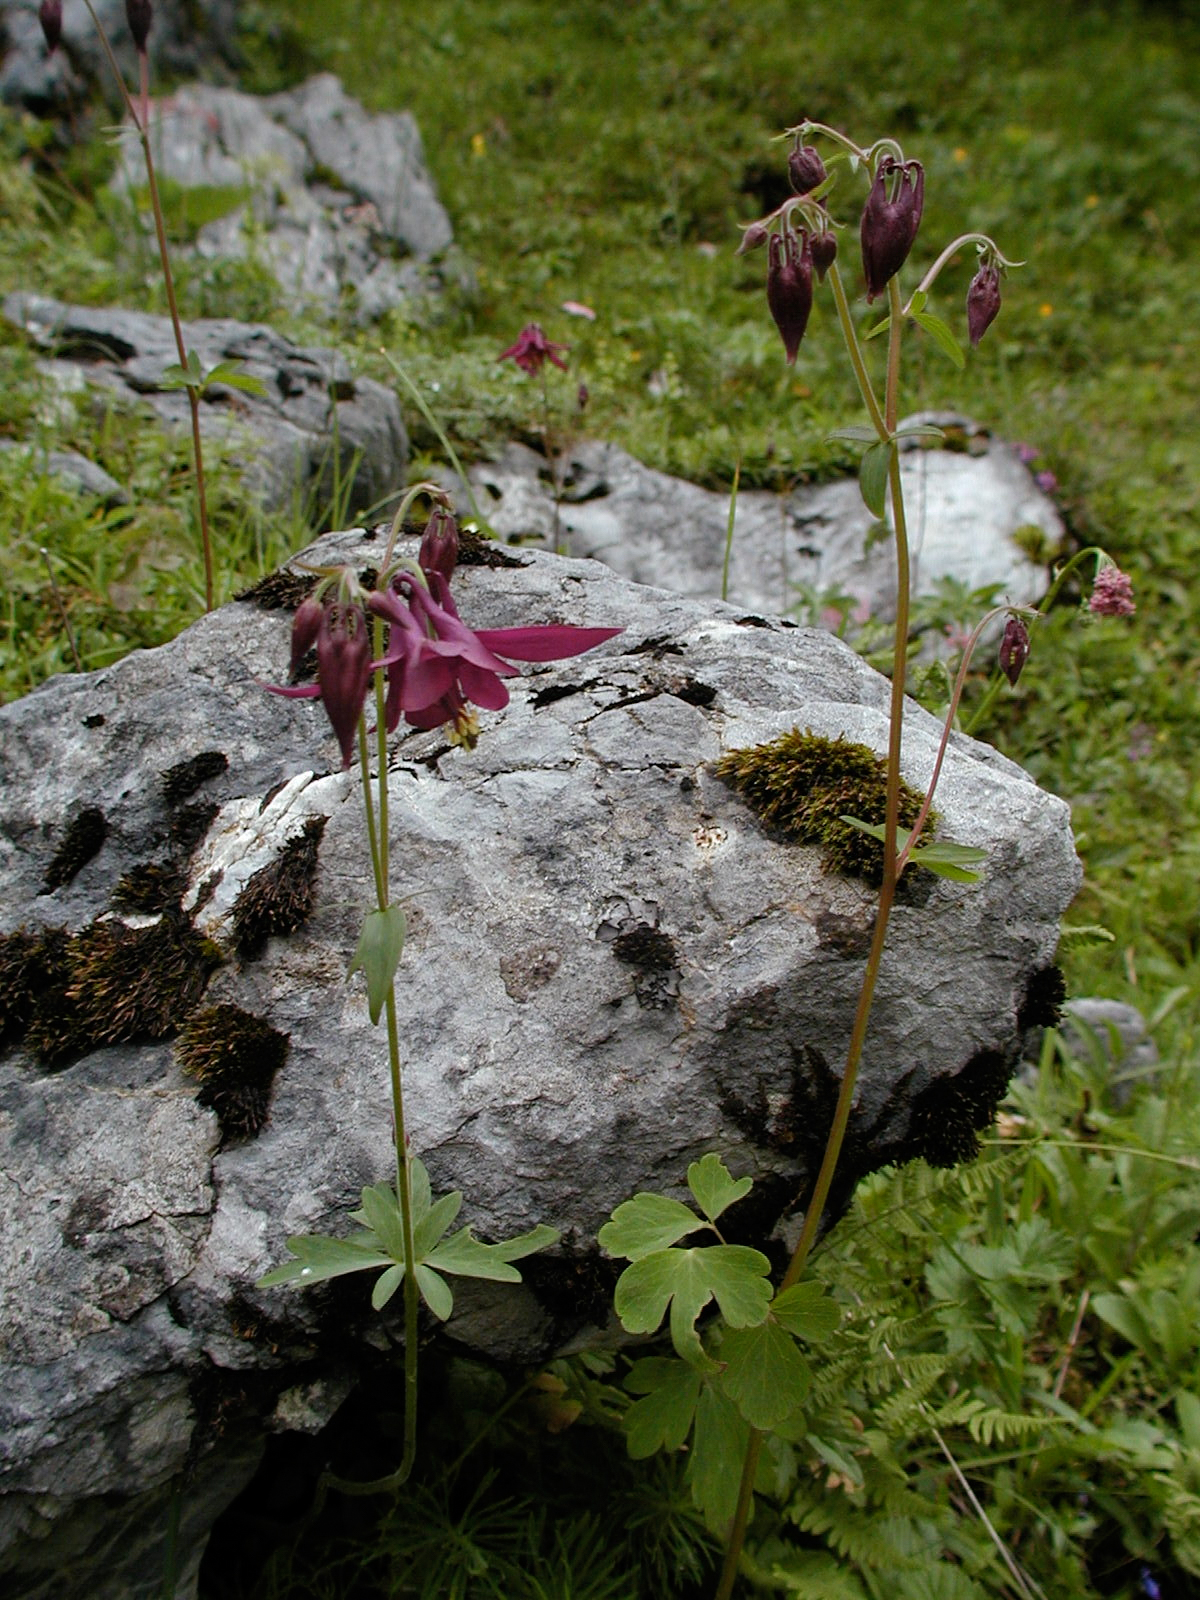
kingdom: Plantae
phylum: Tracheophyta
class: Magnoliopsida
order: Ranunculales
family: Ranunculaceae
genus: Aquilegia
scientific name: Aquilegia atrata
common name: Dark columbine
